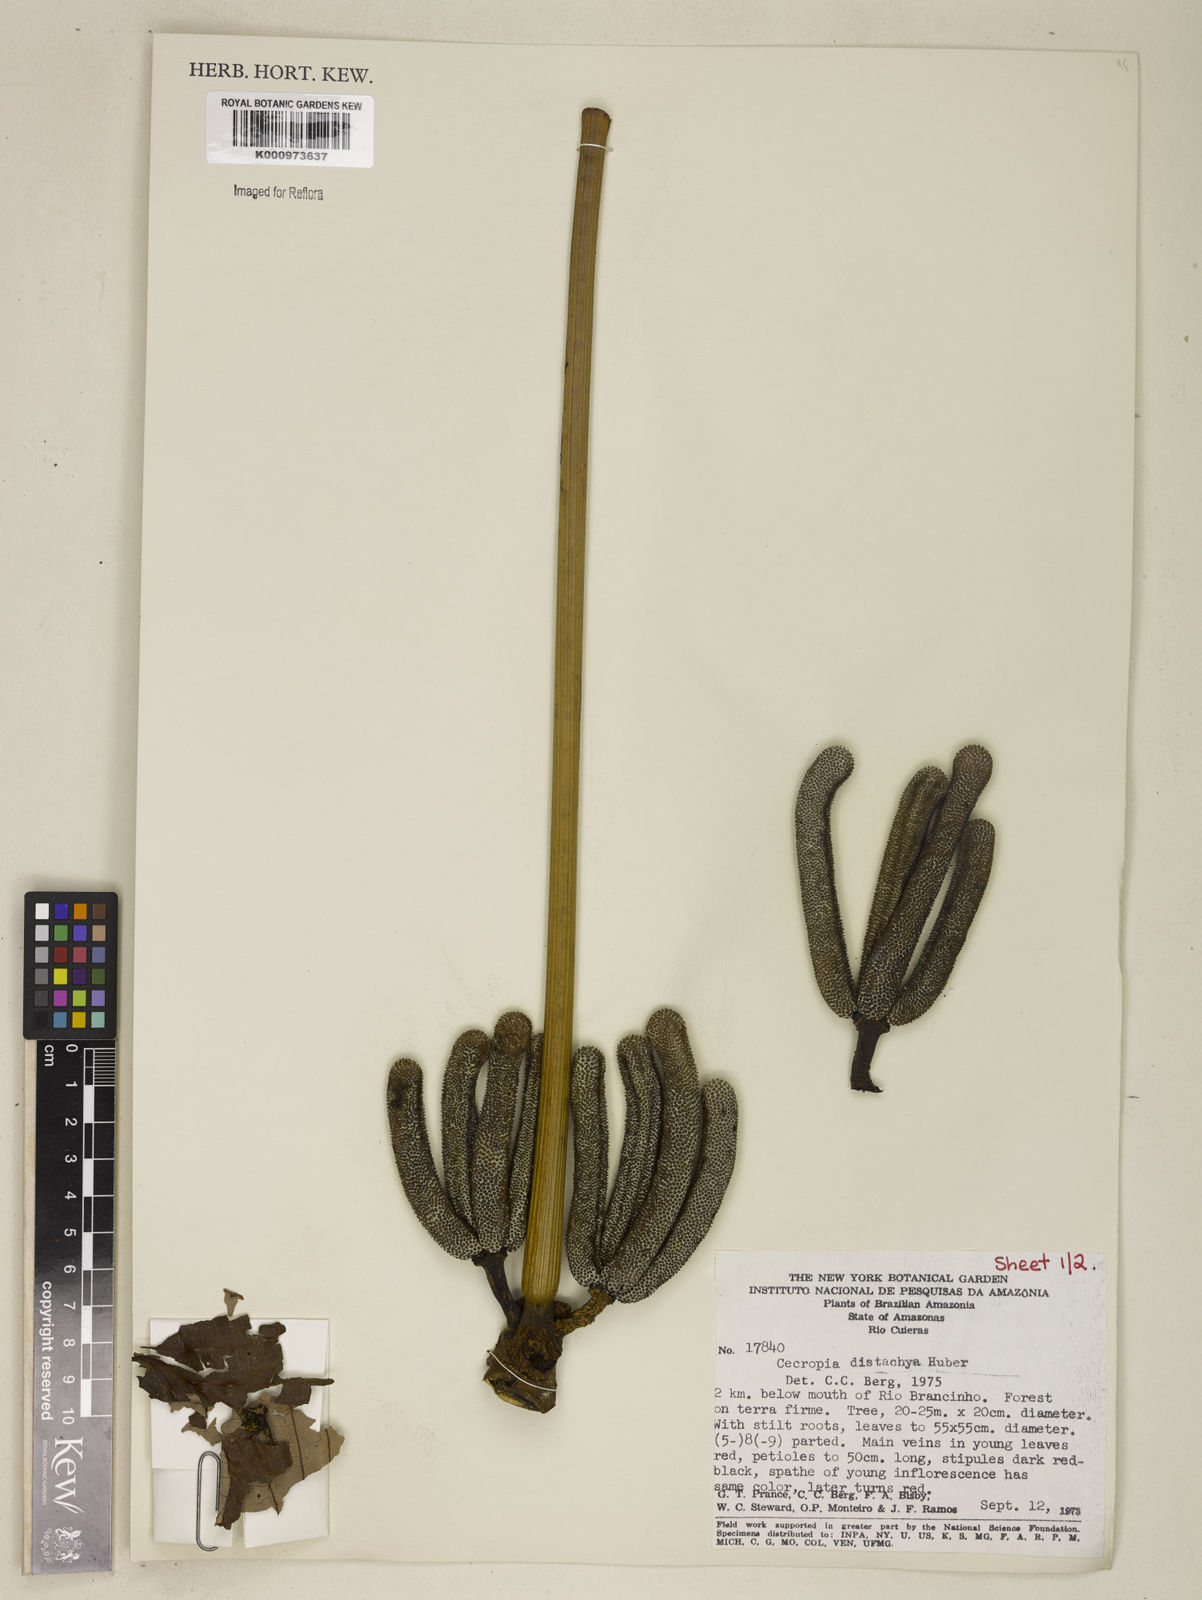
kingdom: Plantae
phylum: Tracheophyta
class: Magnoliopsida
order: Rosales
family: Urticaceae
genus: Cecropia
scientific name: Cecropia distachya
